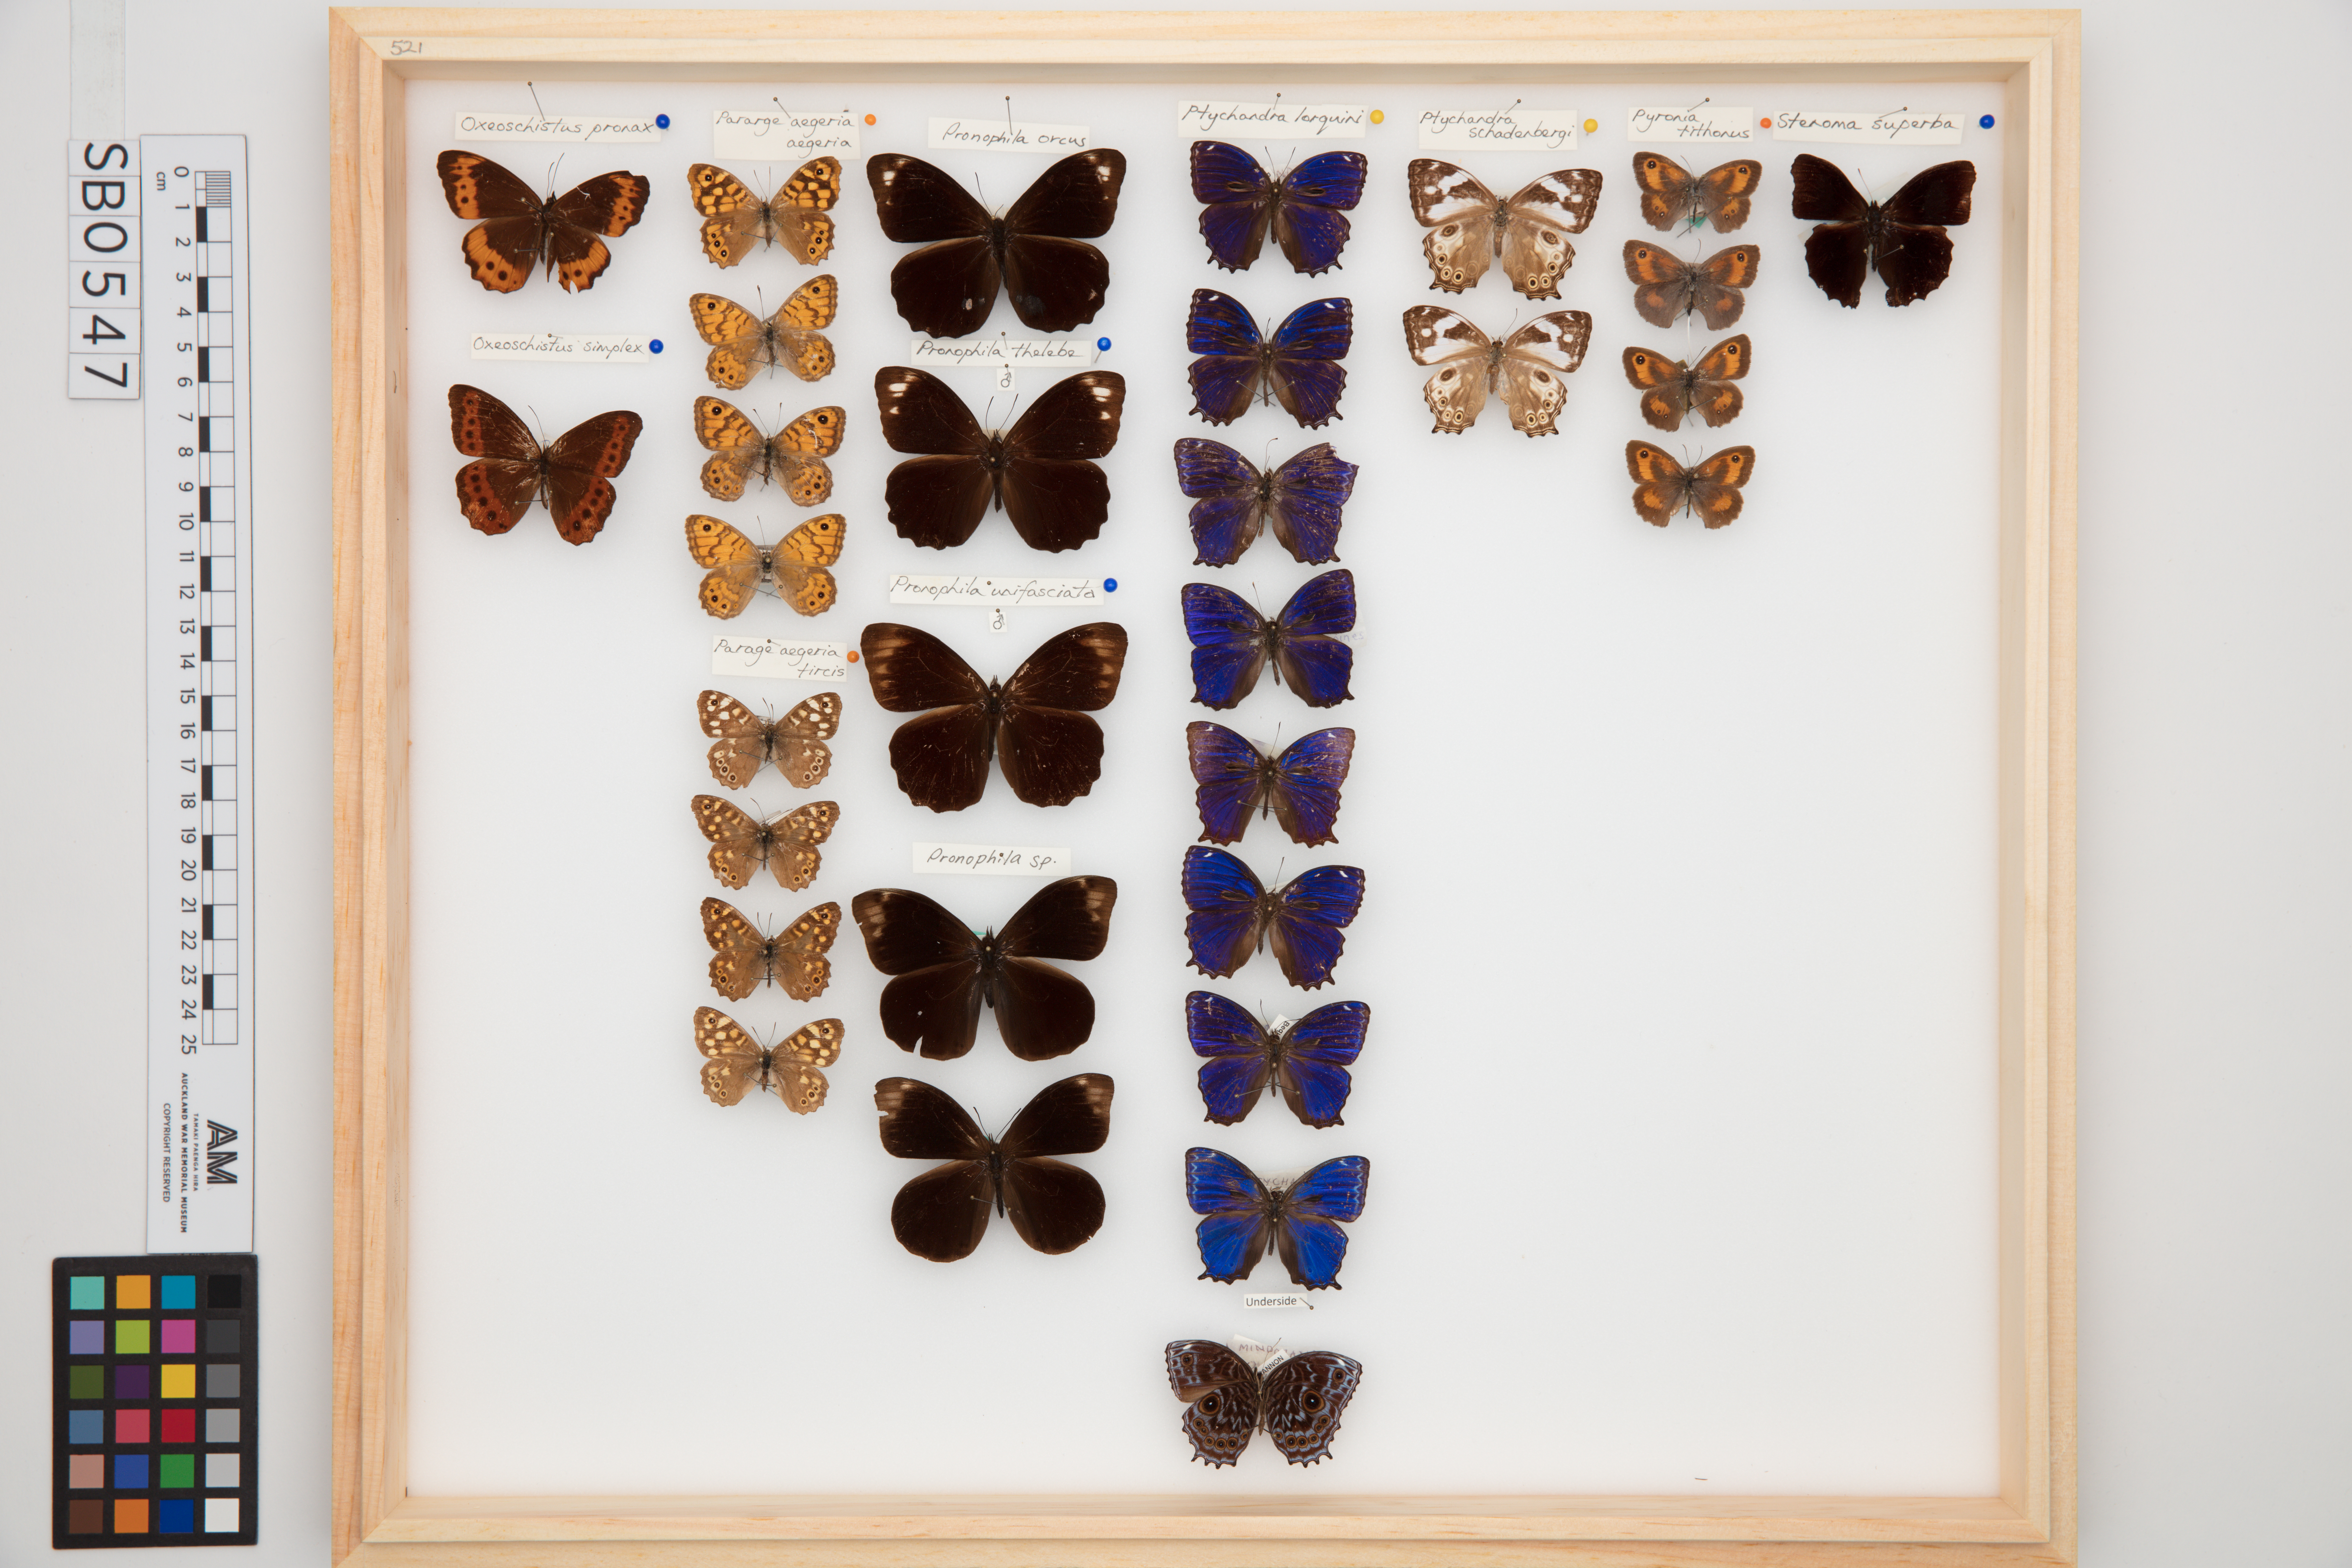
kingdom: Animalia
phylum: Arthropoda
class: Insecta
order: Lepidoptera
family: Nymphalidae
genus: Ptychandra
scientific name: Ptychandra schadenbergi
